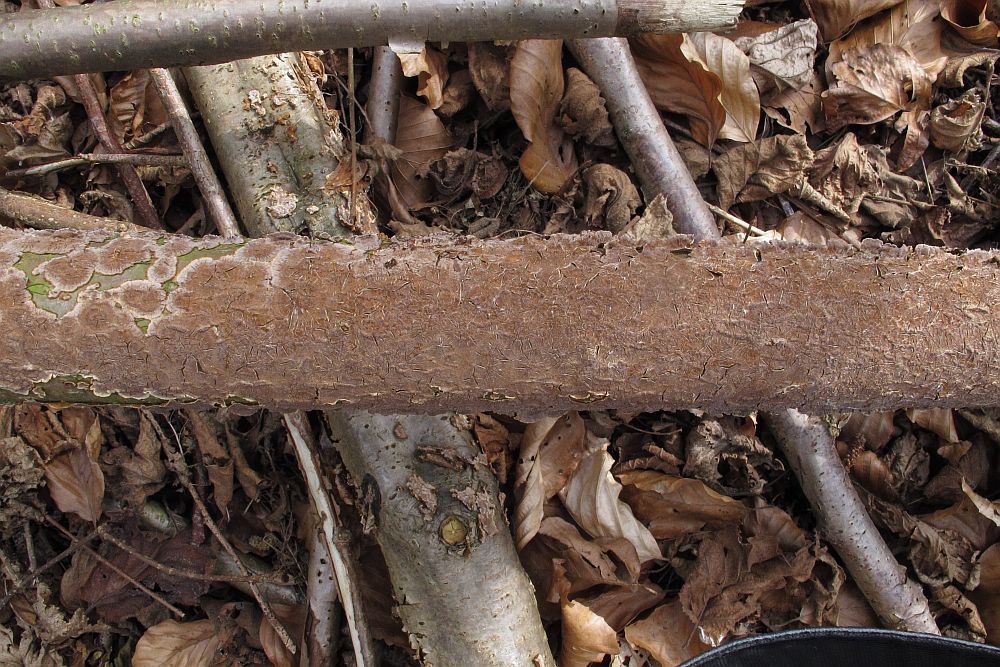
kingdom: Fungi
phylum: Basidiomycota
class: Agaricomycetes
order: Hymenochaetales
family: Hymenochaetaceae
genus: Hydnoporia
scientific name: Hydnoporia tabacina
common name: tobaksbrun ruslædersvamp
